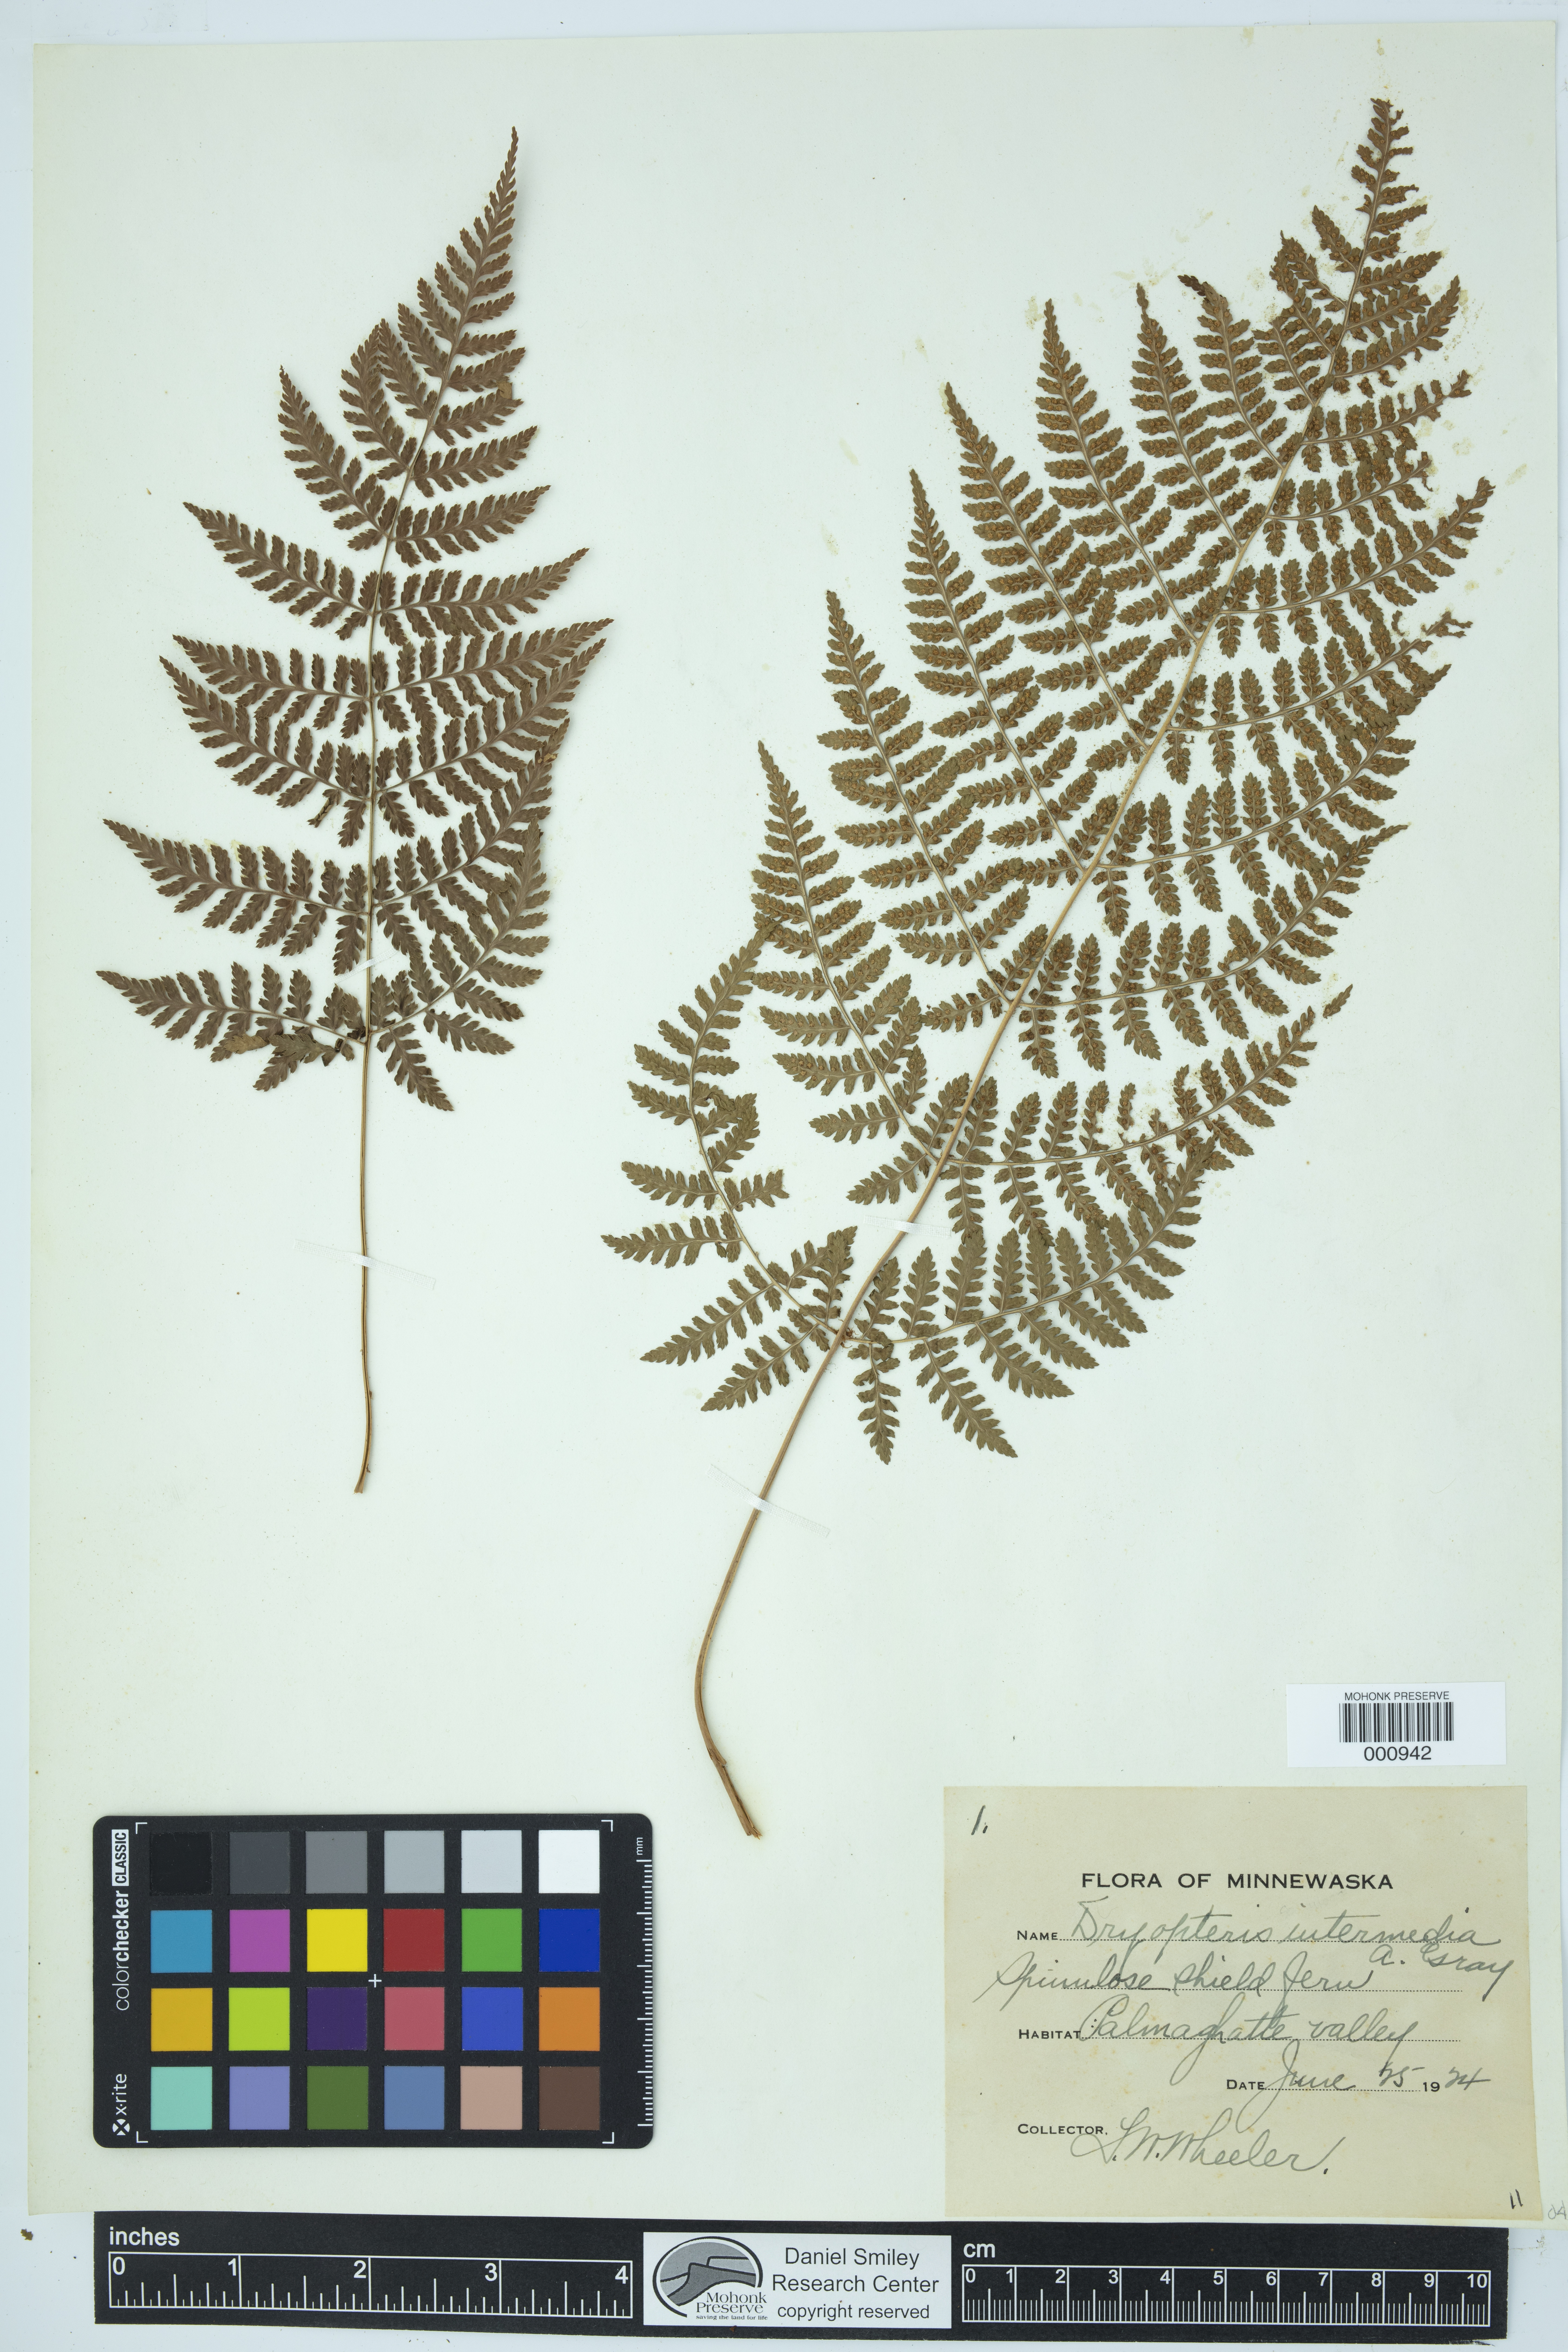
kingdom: Plantae
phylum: Tracheophyta
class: Polypodiopsida
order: Polypodiales
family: Dryopteridaceae
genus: Dryopteris
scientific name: Dryopteris intermedia
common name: Evergreen wood fern
